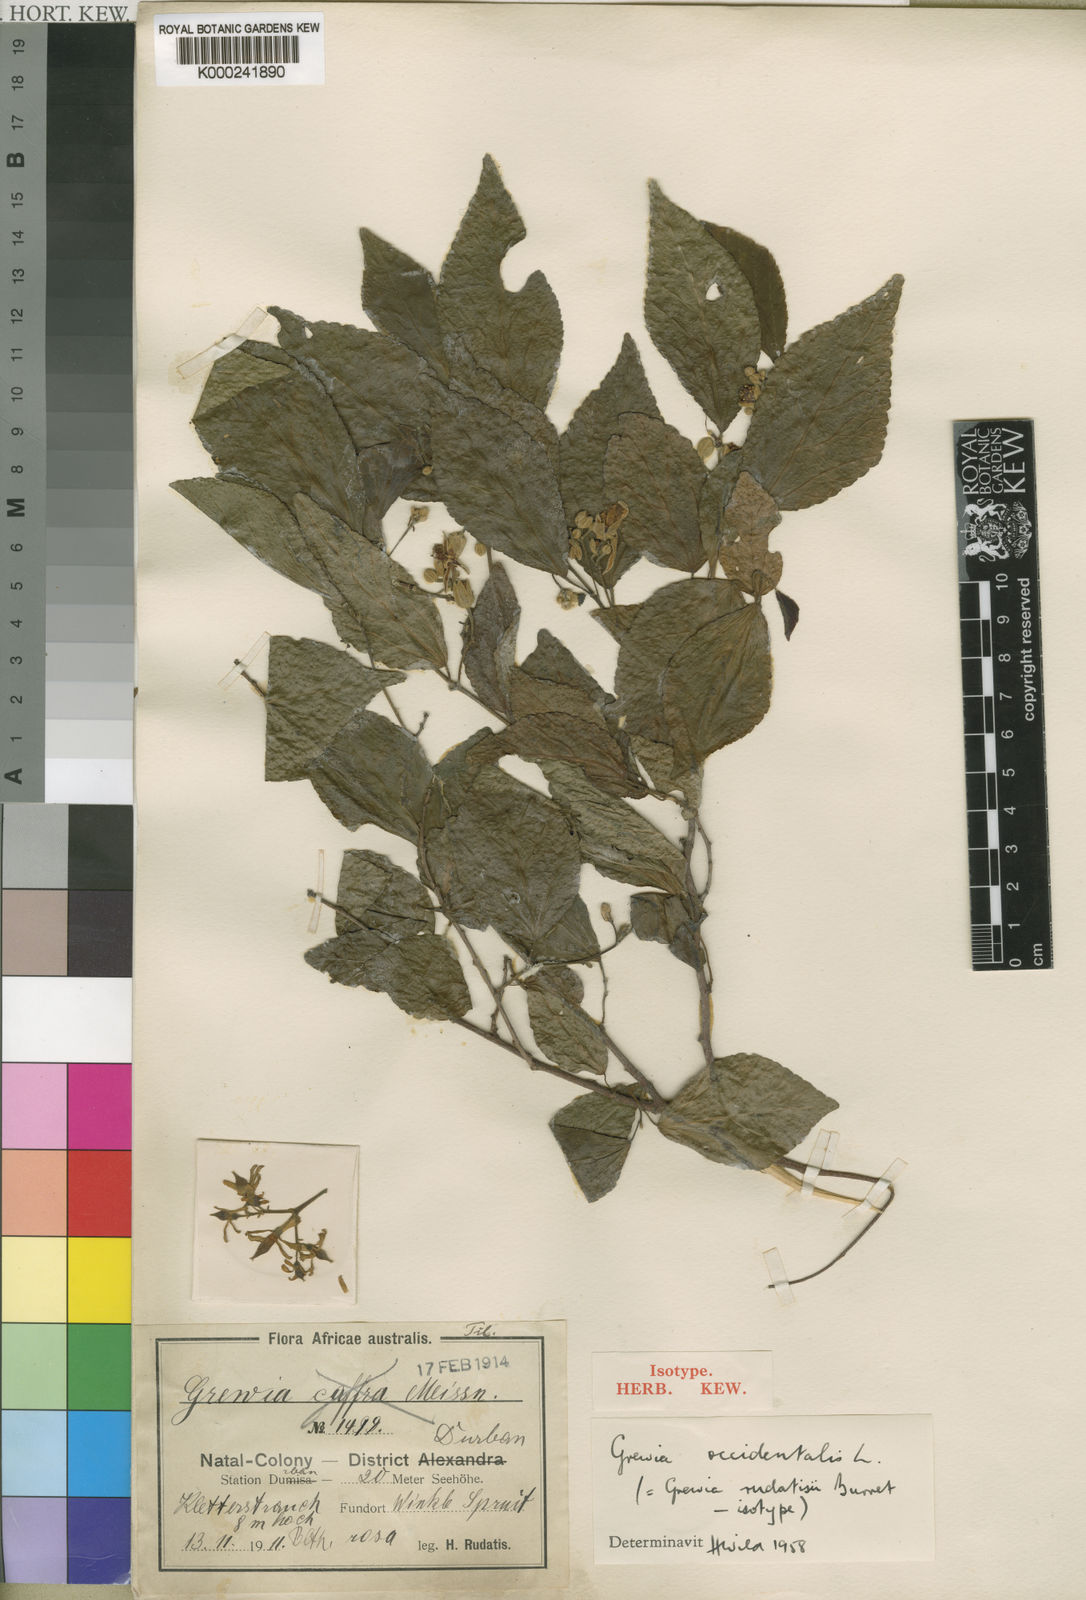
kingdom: Plantae
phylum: Tracheophyta
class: Magnoliopsida
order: Malvales
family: Malvaceae
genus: Grewia
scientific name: Grewia occidentalis
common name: Crossberry
